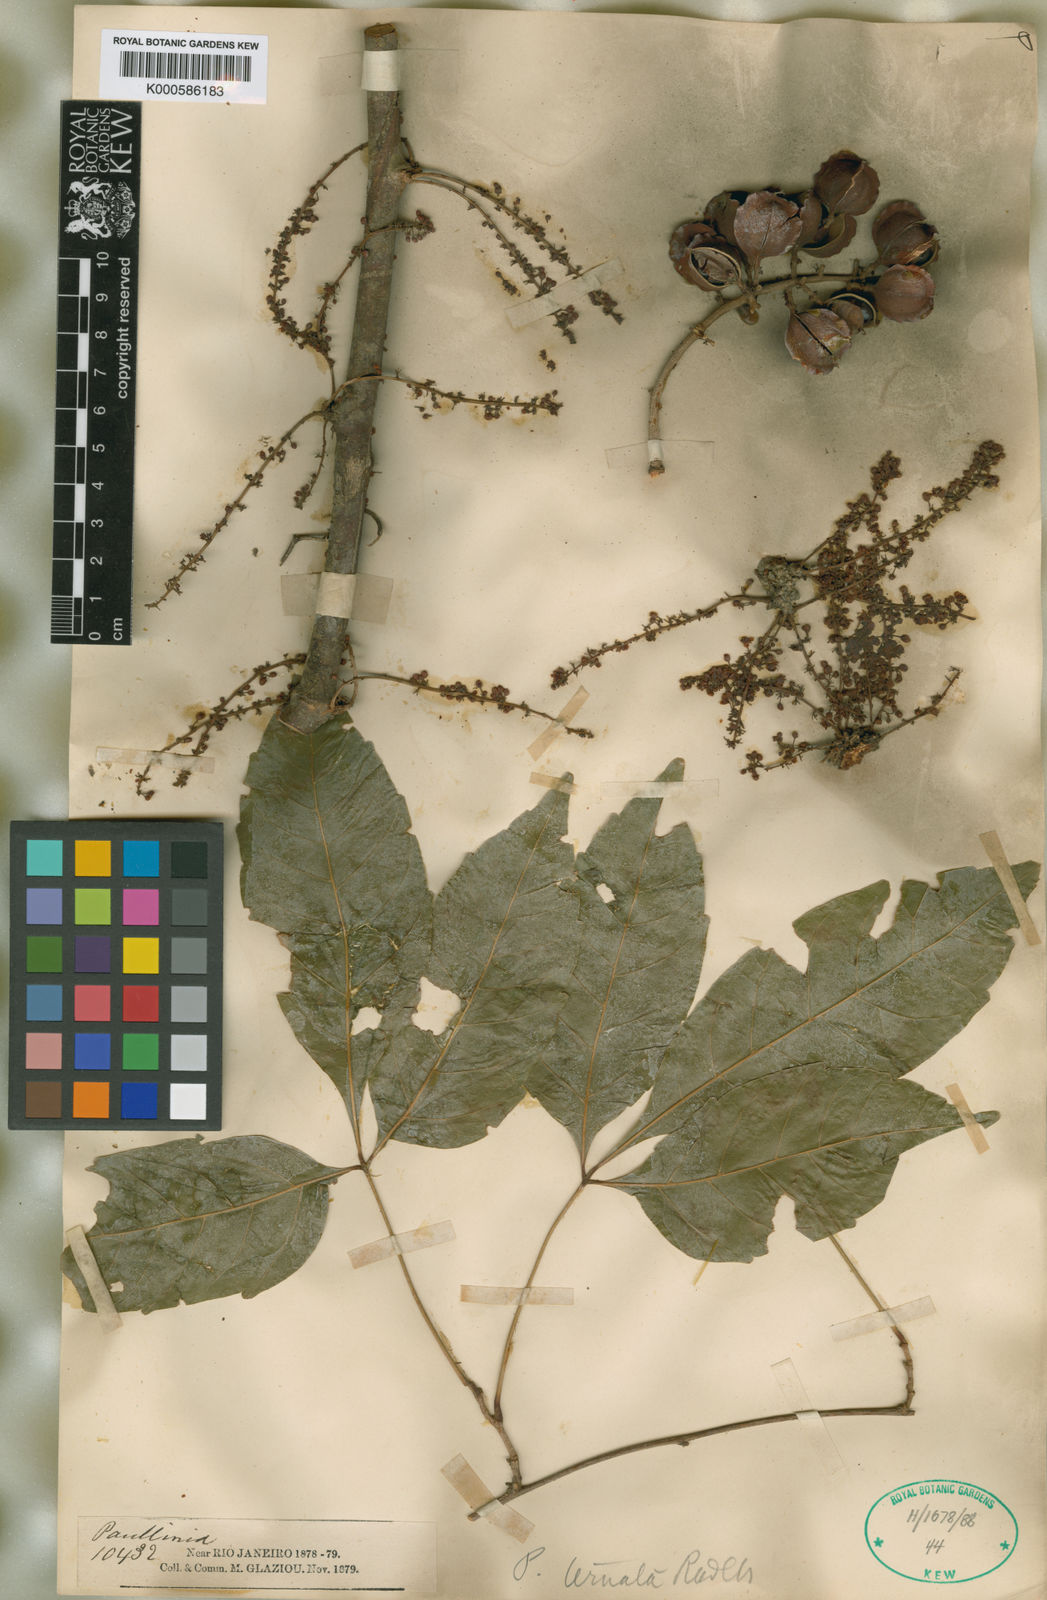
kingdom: Plantae
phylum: Tracheophyta
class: Magnoliopsida
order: Sapindales
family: Sapindaceae
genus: Paullinia
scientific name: Paullinia ternata
